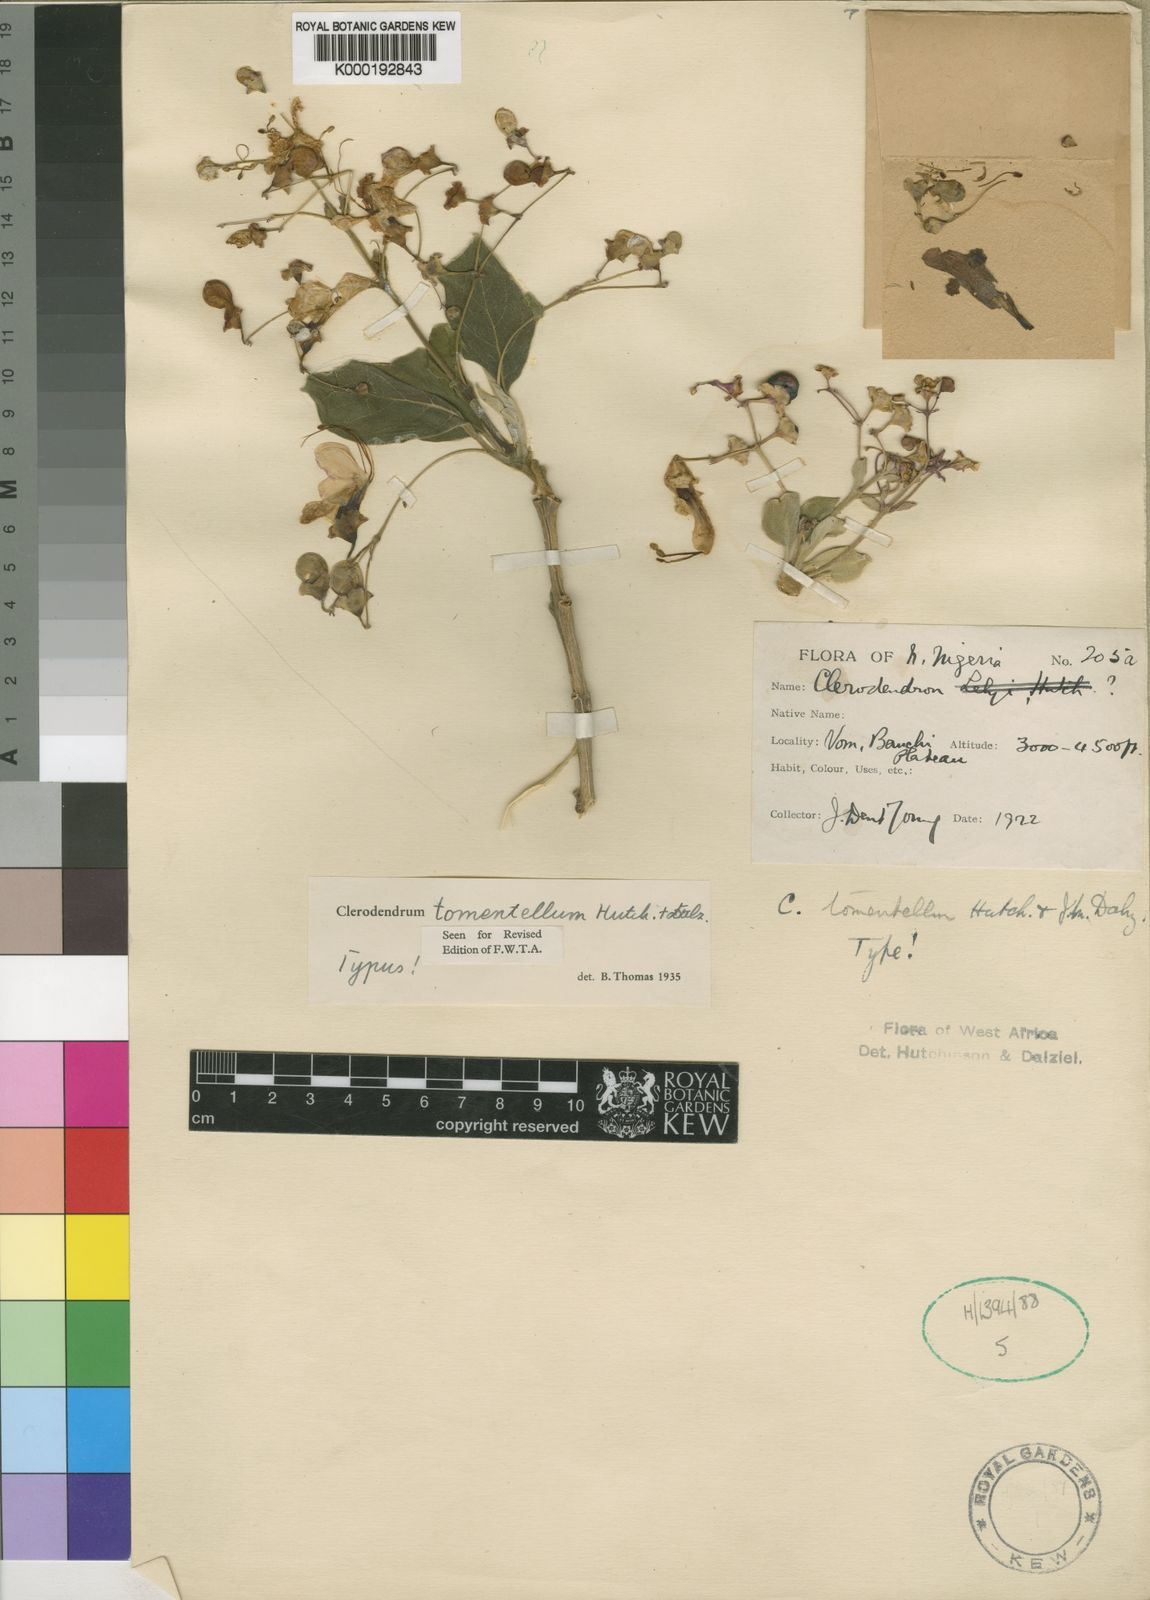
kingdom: Plantae
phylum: Tracheophyta
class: Magnoliopsida
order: Lamiales
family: Lamiaceae
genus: Clerodendrum
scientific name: Clerodendrum tomentellum
